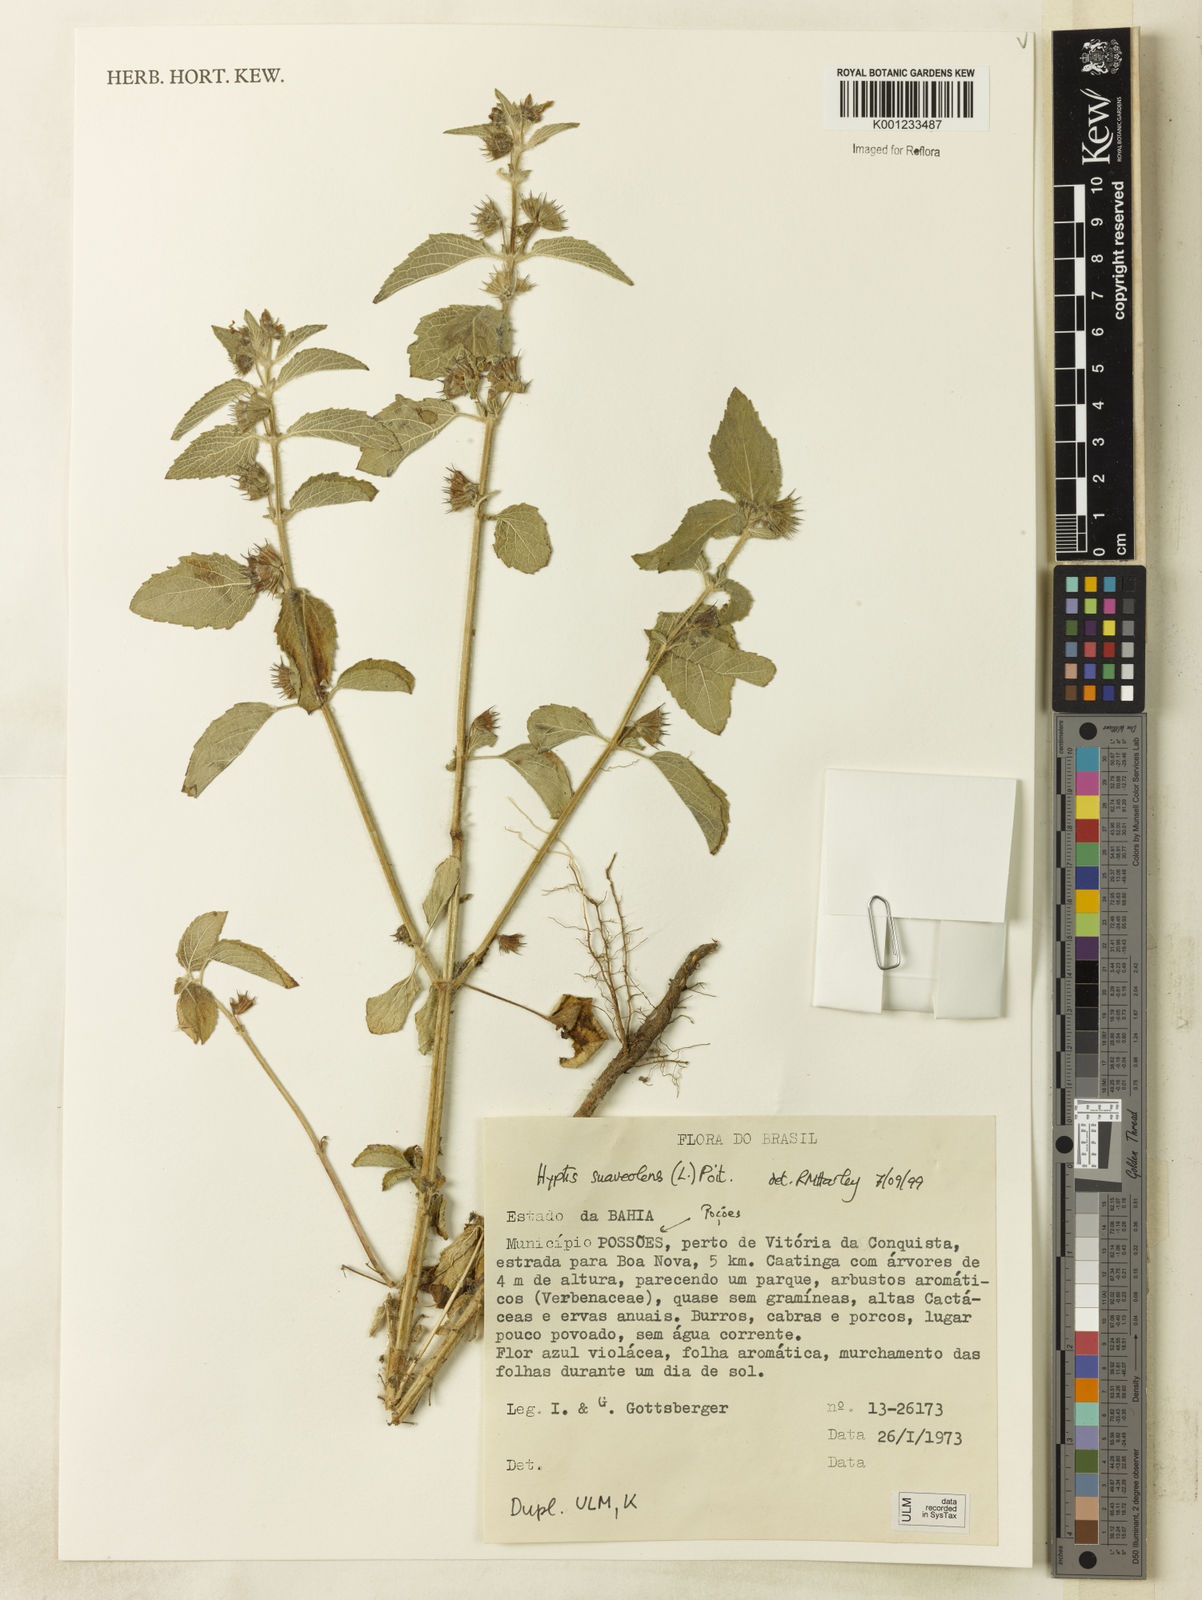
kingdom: Plantae
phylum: Tracheophyta
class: Magnoliopsida
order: Lamiales
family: Lamiaceae
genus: Mesosphaerum
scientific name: Mesosphaerum suaveolens
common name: Pignut
